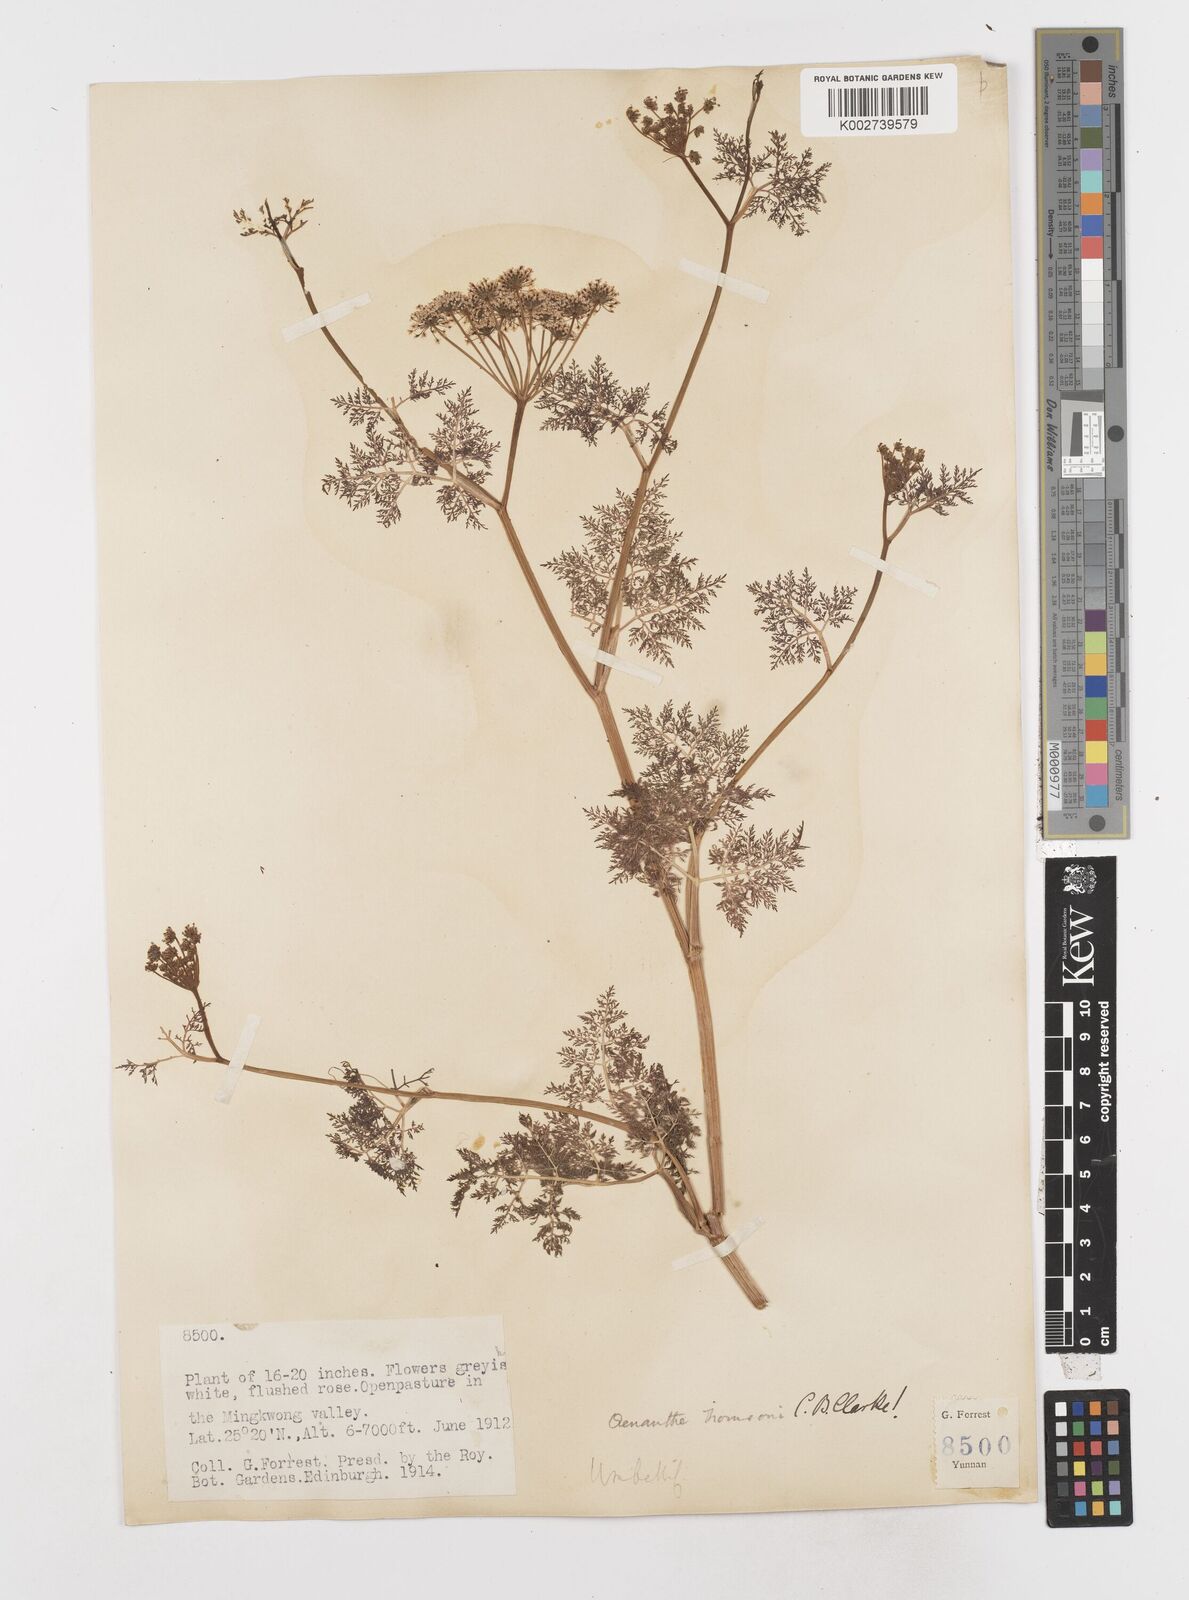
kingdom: Plantae
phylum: Tracheophyta
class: Magnoliopsida
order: Apiales
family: Apiaceae
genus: Oenanthe
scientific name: Oenanthe thomsonii
